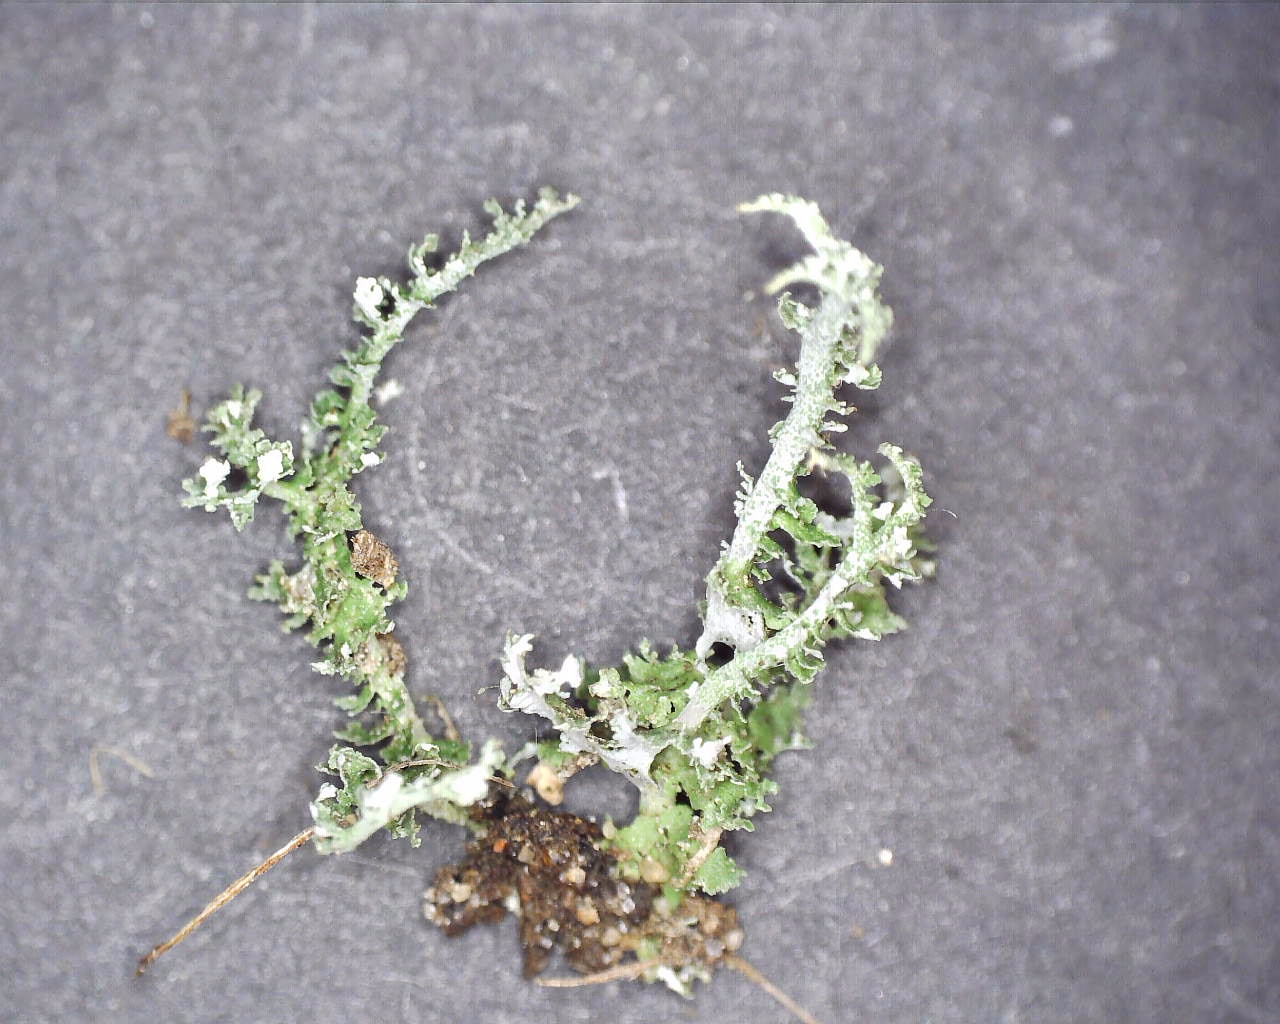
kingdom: Fungi
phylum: Ascomycota
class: Lecanoromycetes
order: Lecanorales
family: Cladoniaceae
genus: Cladonia
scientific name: Cladonia squamosa
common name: skælklædt bægerlav
